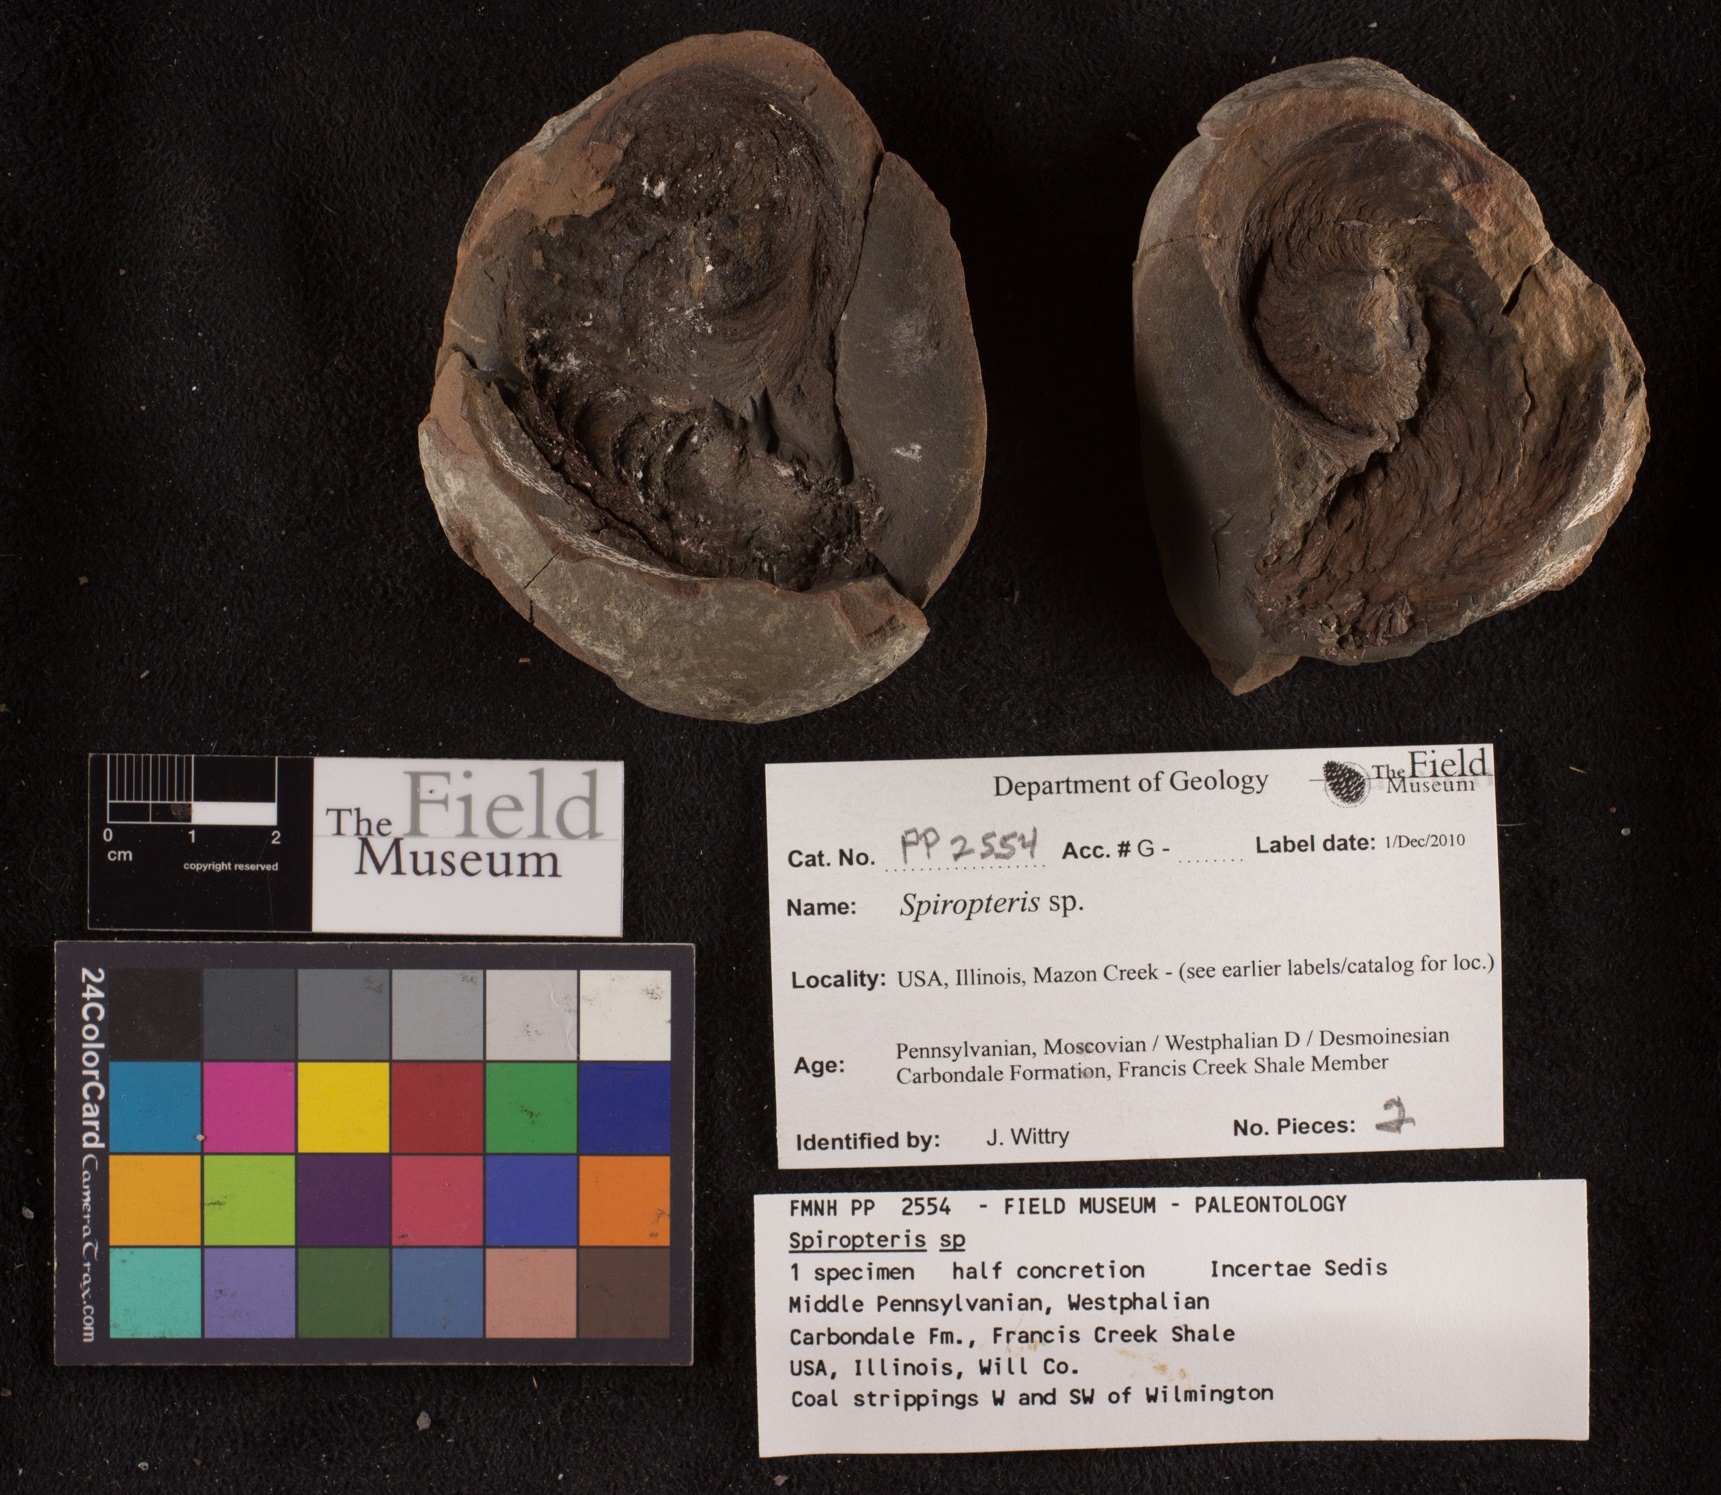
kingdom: Plantae
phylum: Tracheophyta
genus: Spiropteris
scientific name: Spiropteris
